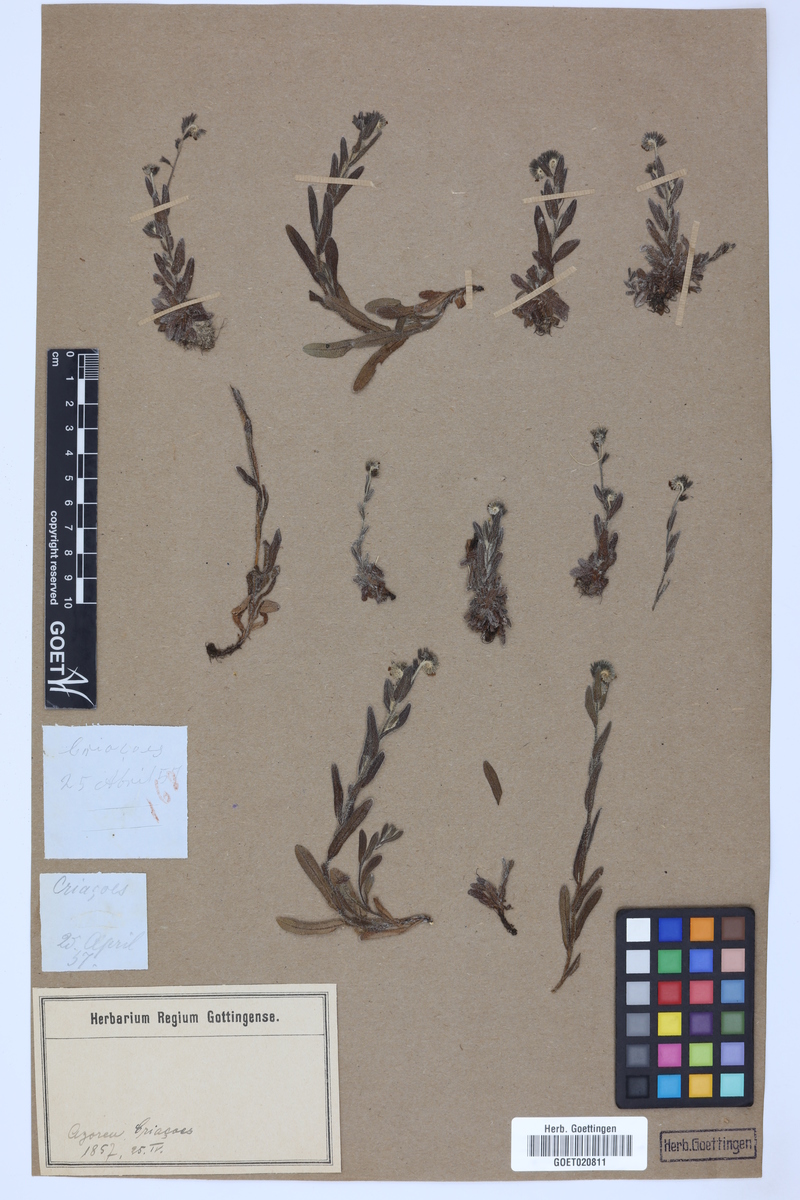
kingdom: Plantae
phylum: Tracheophyta
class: Magnoliopsida
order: Boraginales
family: Boraginaceae
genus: Myosotis
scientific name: Myosotis
